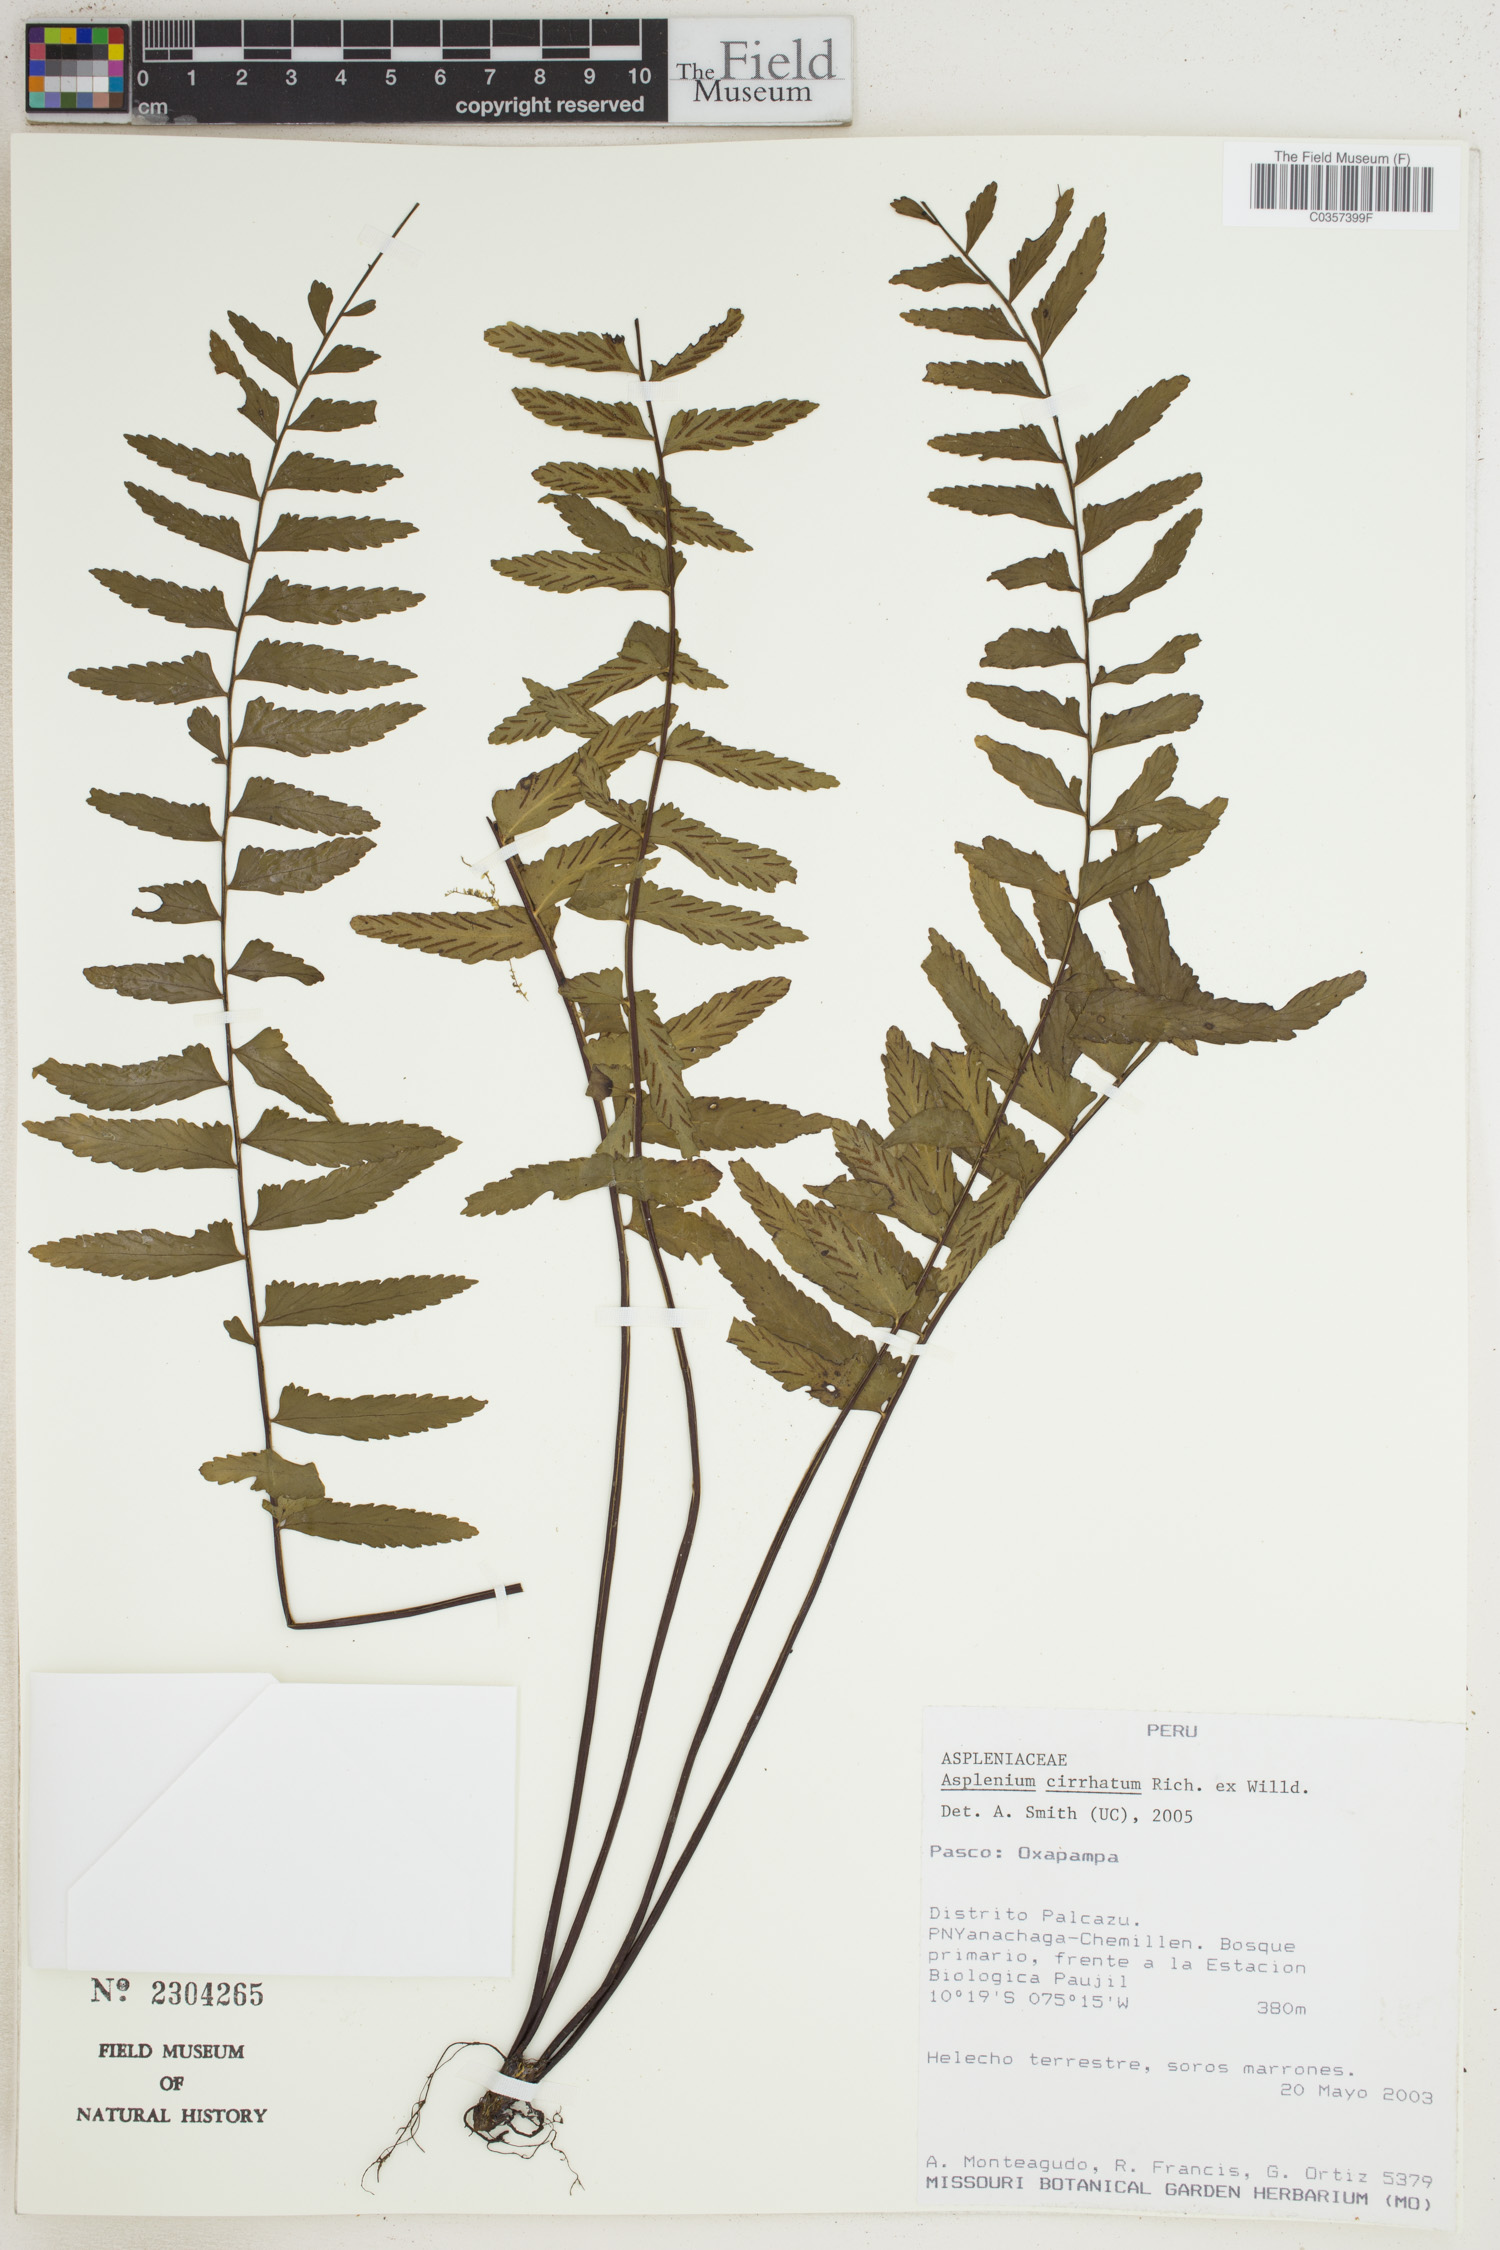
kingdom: Plantae
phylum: Tracheophyta
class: Polypodiopsida
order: Polypodiales
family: Aspleniaceae
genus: Asplenium
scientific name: Asplenium cirrhatum
